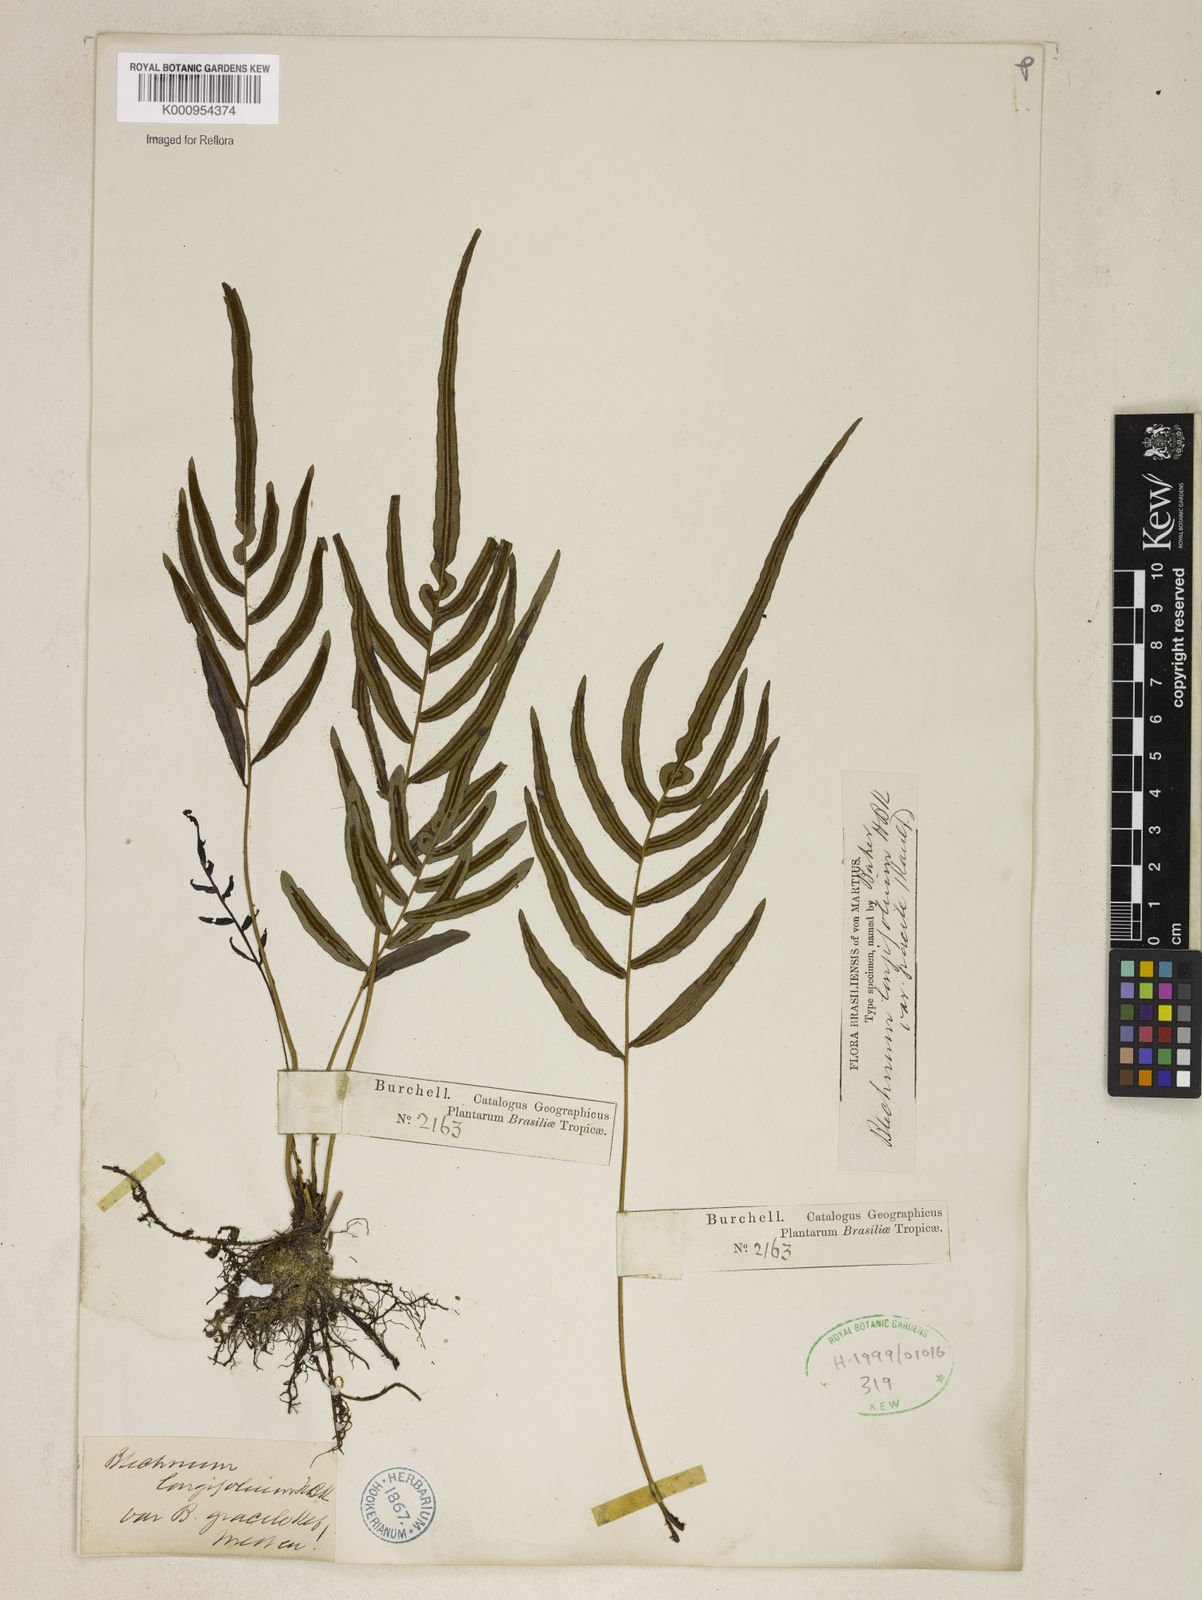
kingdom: Plantae
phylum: Tracheophyta
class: Polypodiopsida
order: Polypodiales
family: Blechnaceae
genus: Blechnum
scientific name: Blechnum gracile
